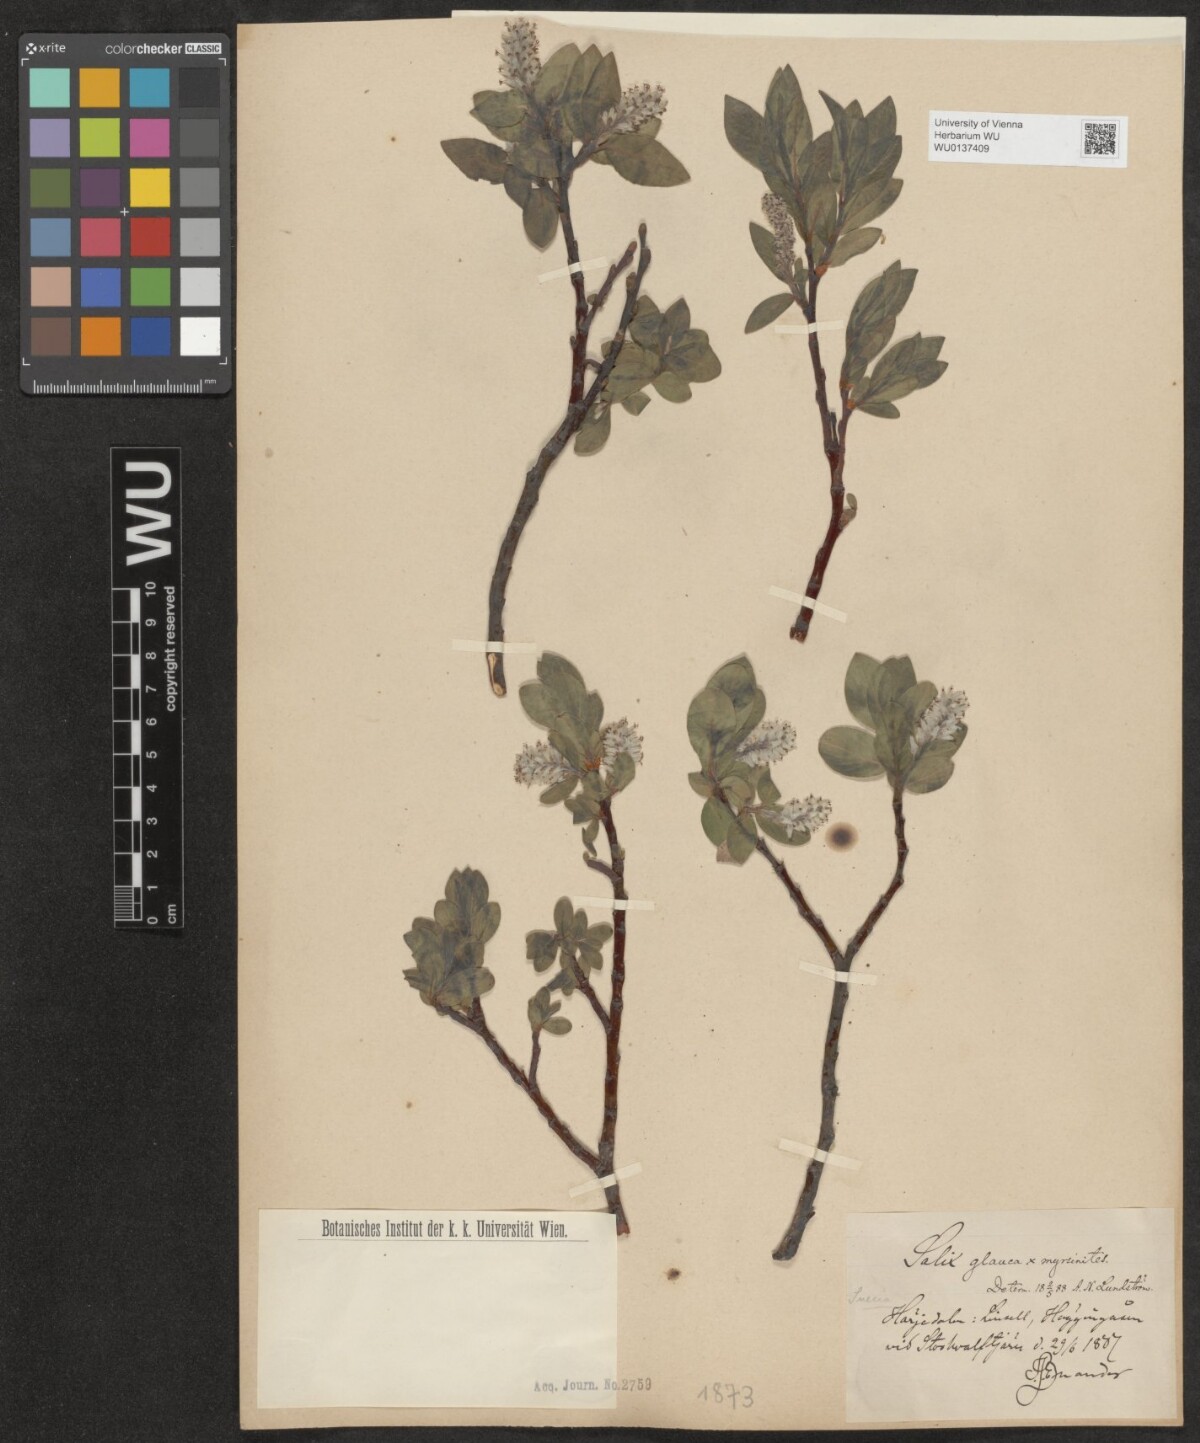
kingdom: Plantae
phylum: Tracheophyta
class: Magnoliopsida
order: Malpighiales
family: Salicaceae
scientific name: Salicaceae
